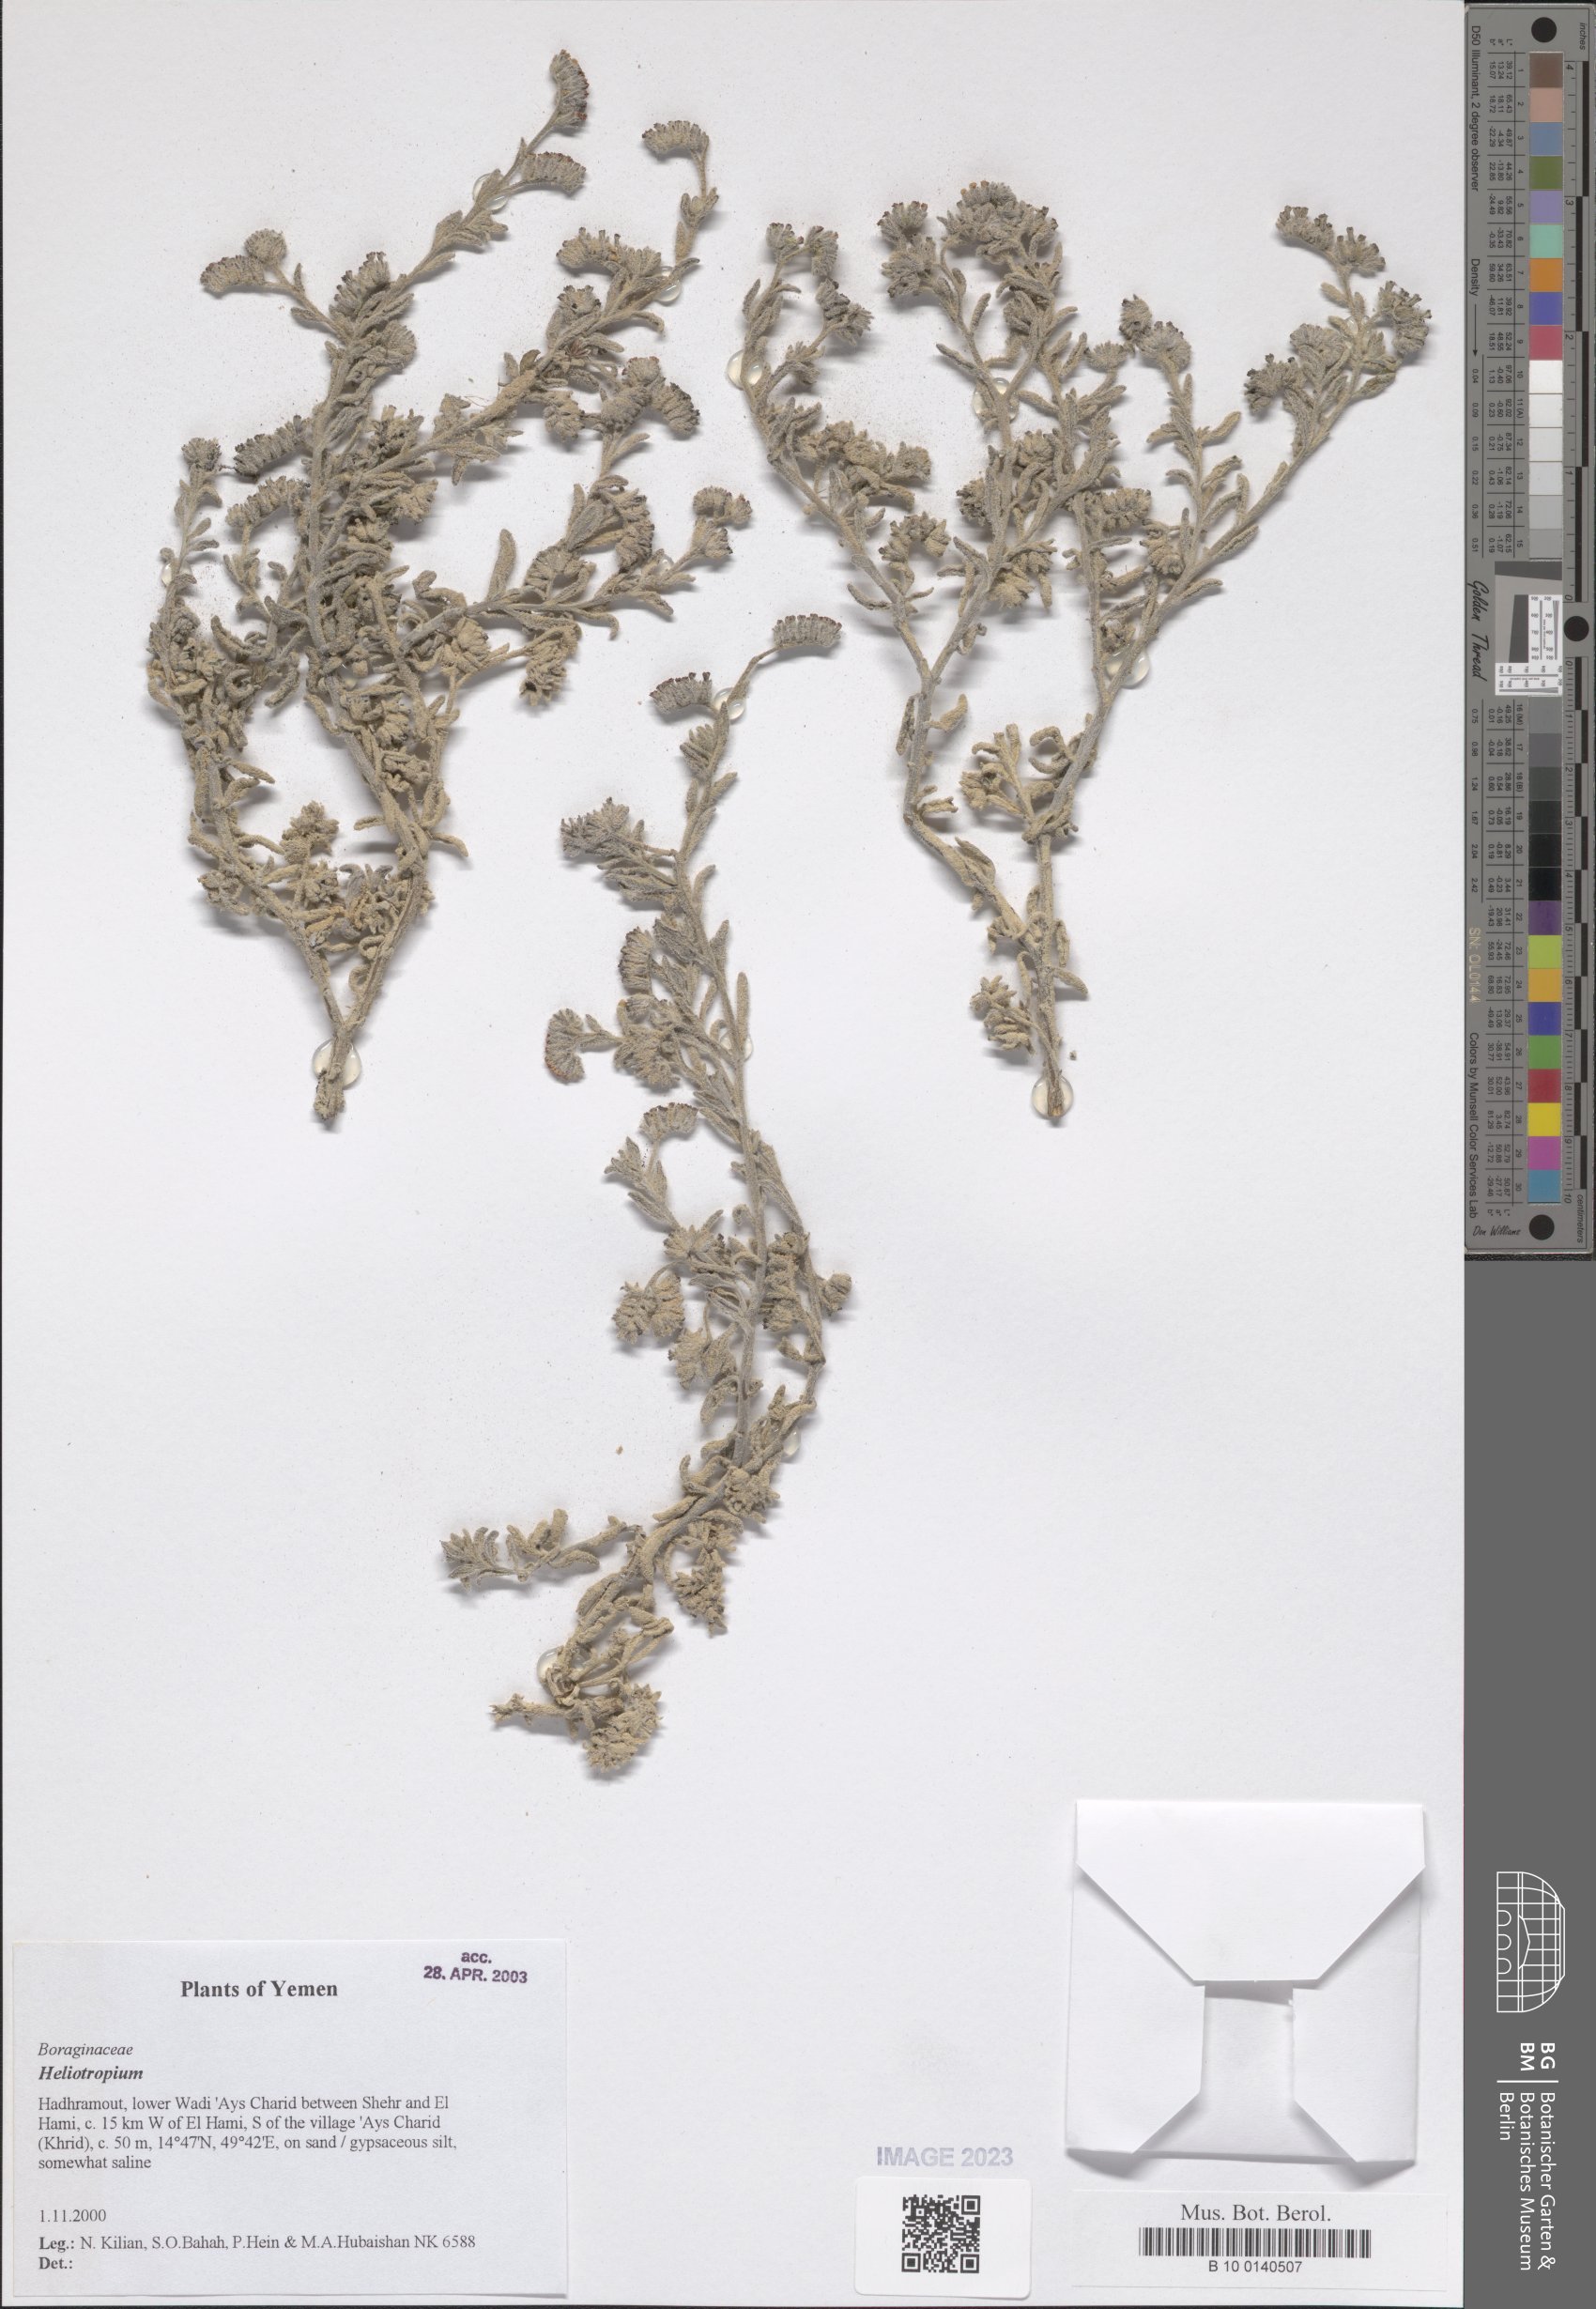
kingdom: Plantae
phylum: Tracheophyta
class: Magnoliopsida
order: Boraginales
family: Heliotropiaceae
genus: Heliotropium
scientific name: Heliotropium
